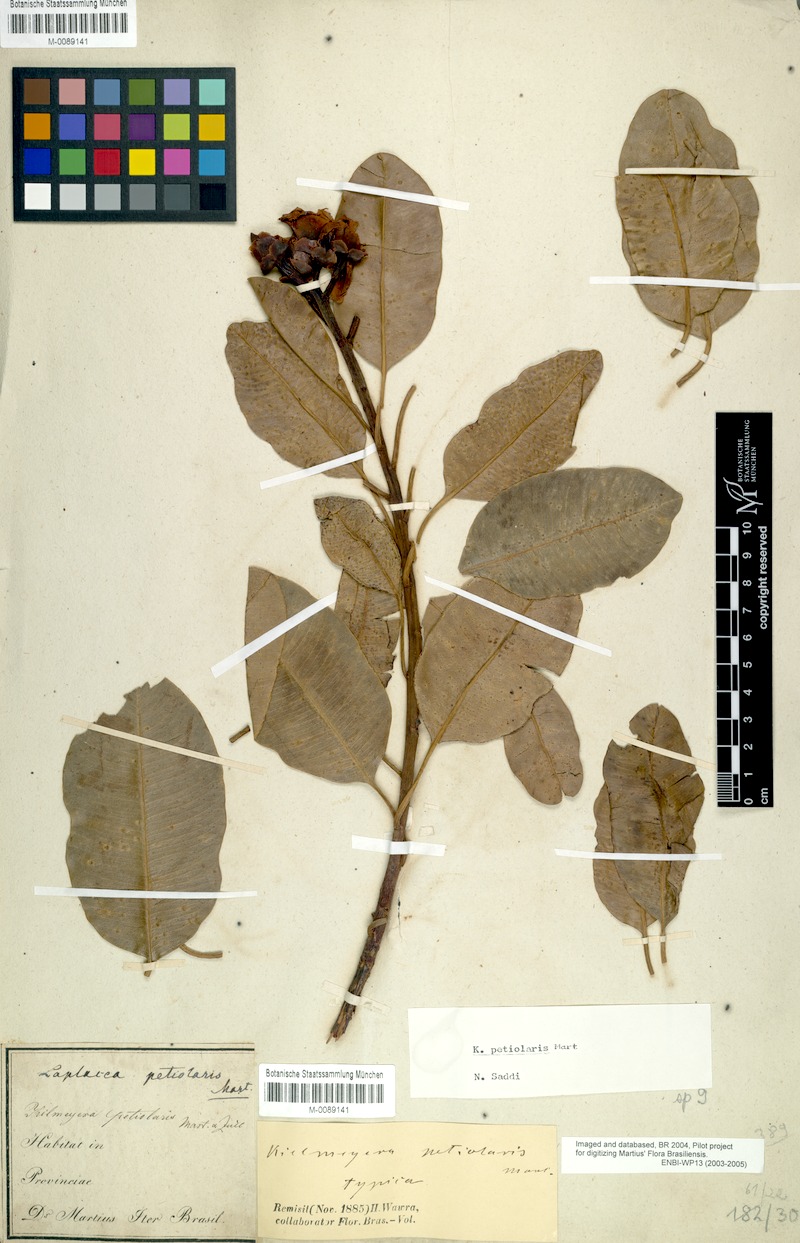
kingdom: Plantae
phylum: Tracheophyta
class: Magnoliopsida
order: Malpighiales
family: Calophyllaceae
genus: Kielmeyera
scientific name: Kielmeyera petiolaris
